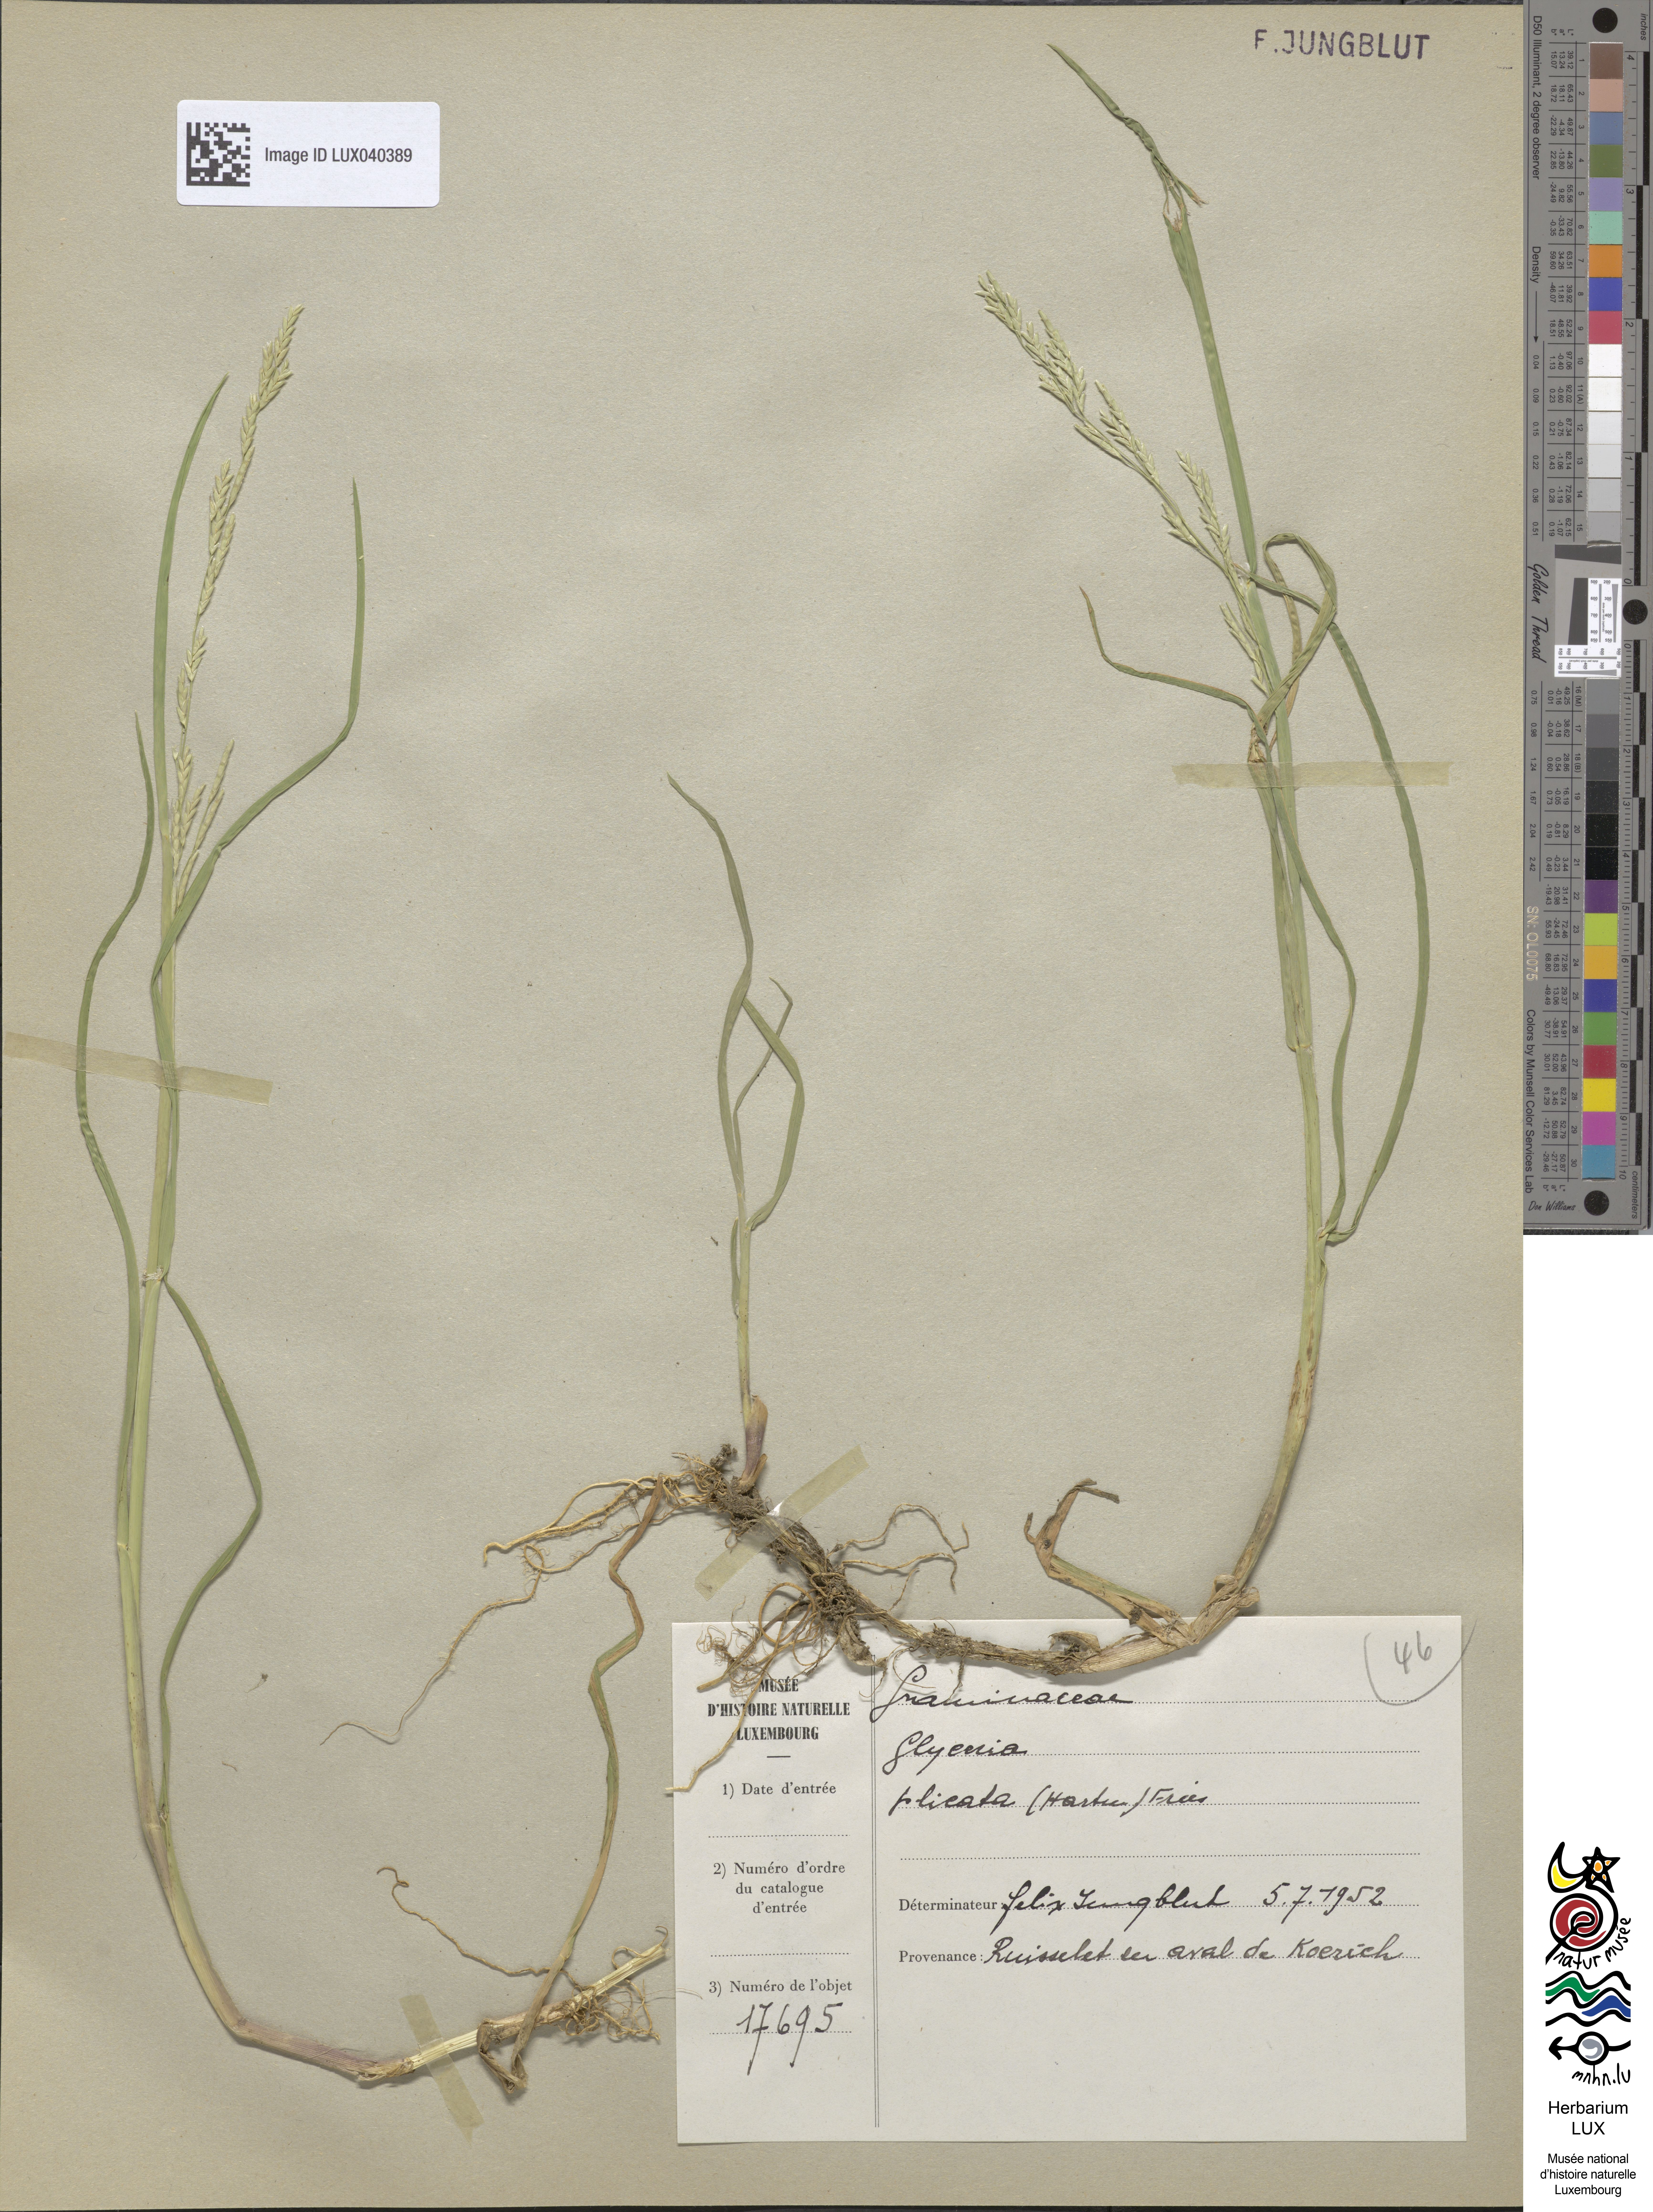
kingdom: Plantae
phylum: Tracheophyta
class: Liliopsida
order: Poales
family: Poaceae
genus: Glyceria
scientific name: Glyceria notata
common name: Plicate sweet-grass
